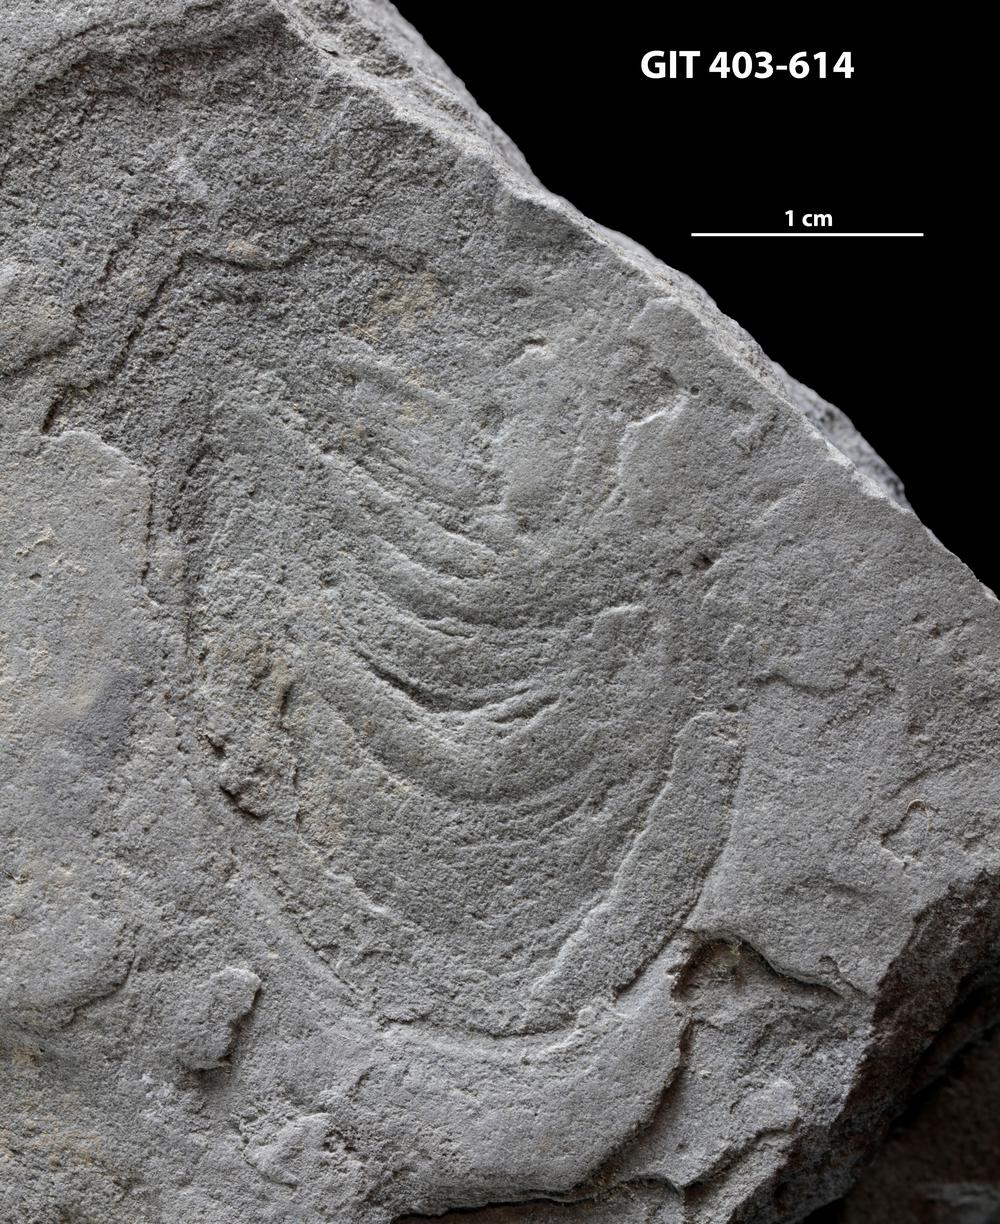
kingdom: Animalia
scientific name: Animalia
